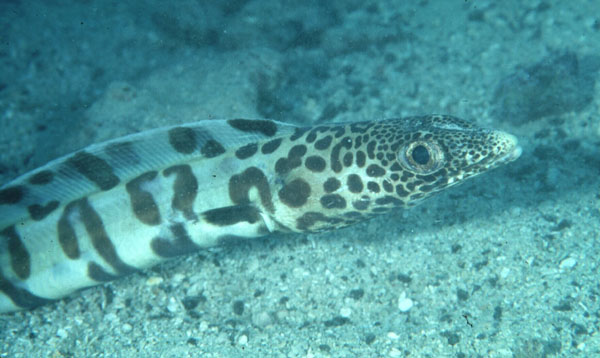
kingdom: Animalia
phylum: Chordata
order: Anguilliformes
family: Congridae
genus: Ariosoma
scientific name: Ariosoma fasciatum
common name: Barred conger
